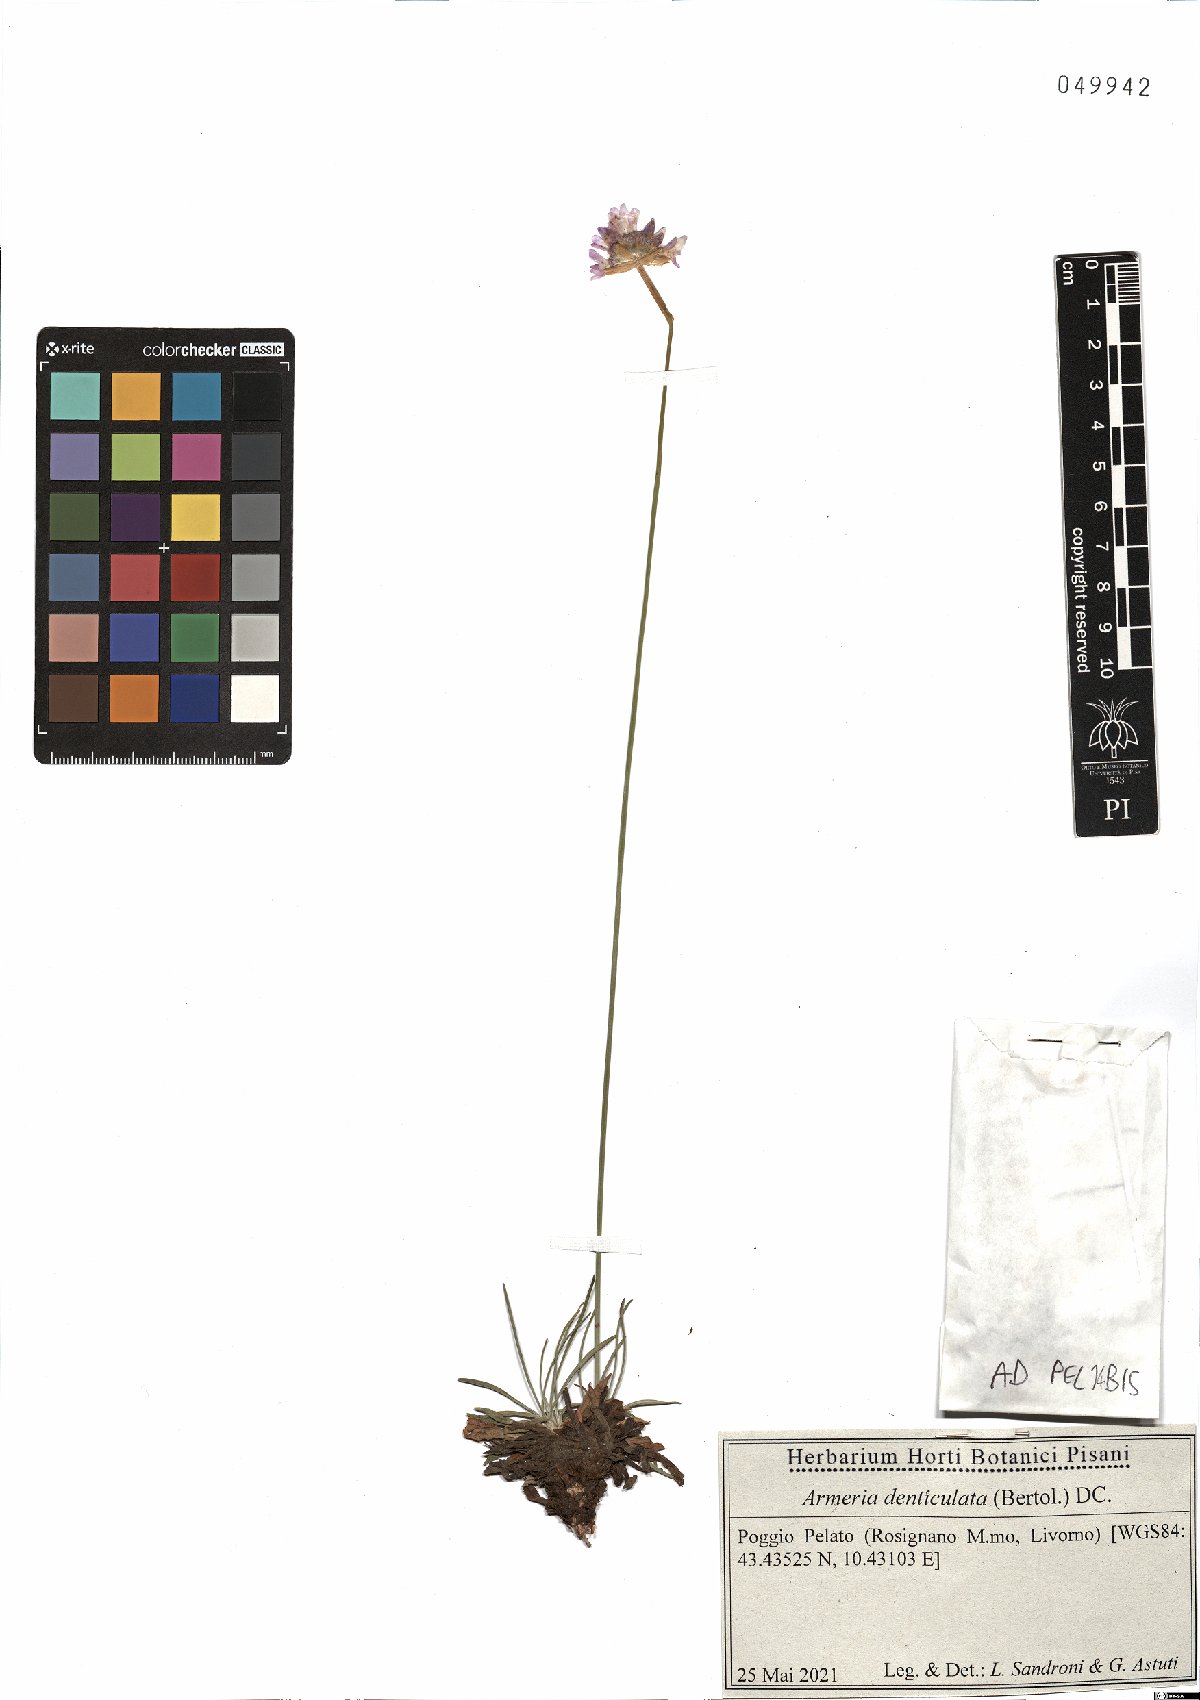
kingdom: Plantae
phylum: Tracheophyta
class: Magnoliopsida
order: Caryophyllales
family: Plumbaginaceae
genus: Armeria
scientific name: Armeria denticulata
